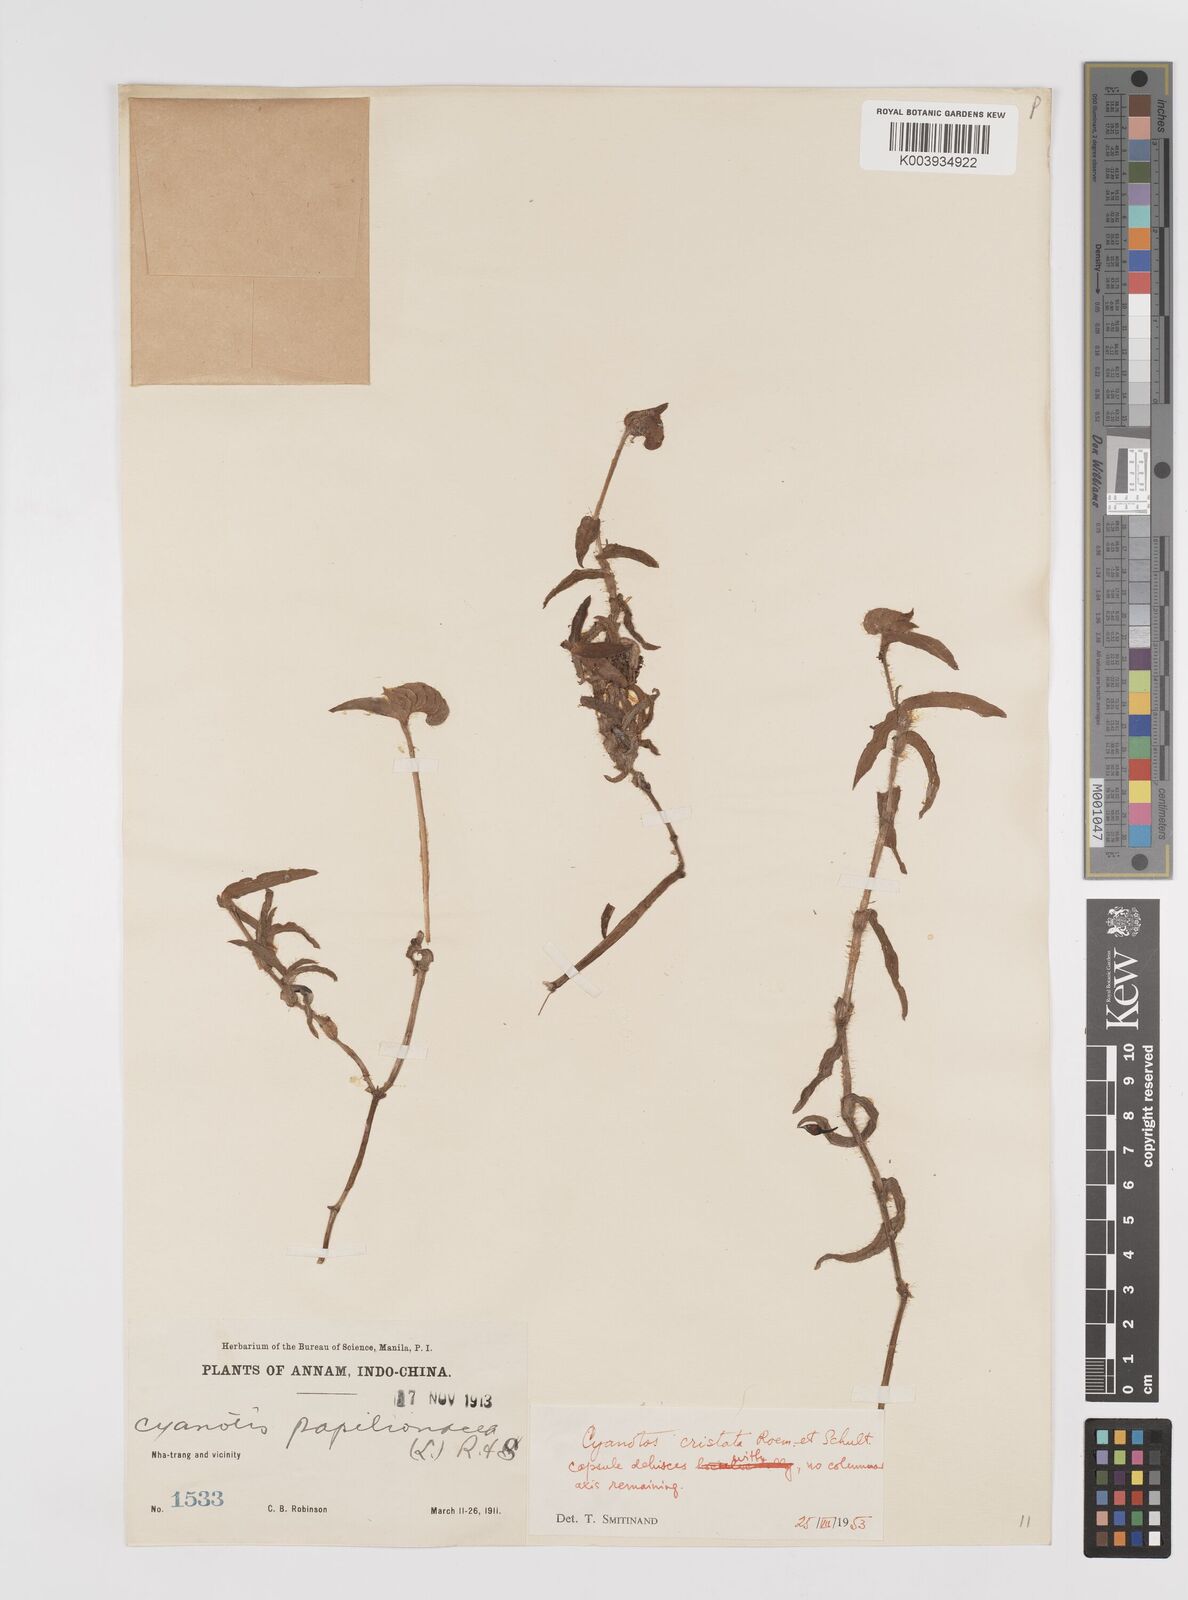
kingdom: Plantae
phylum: Tracheophyta
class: Liliopsida
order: Commelinales
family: Commelinaceae
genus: Cyanotis
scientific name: Cyanotis cristata
